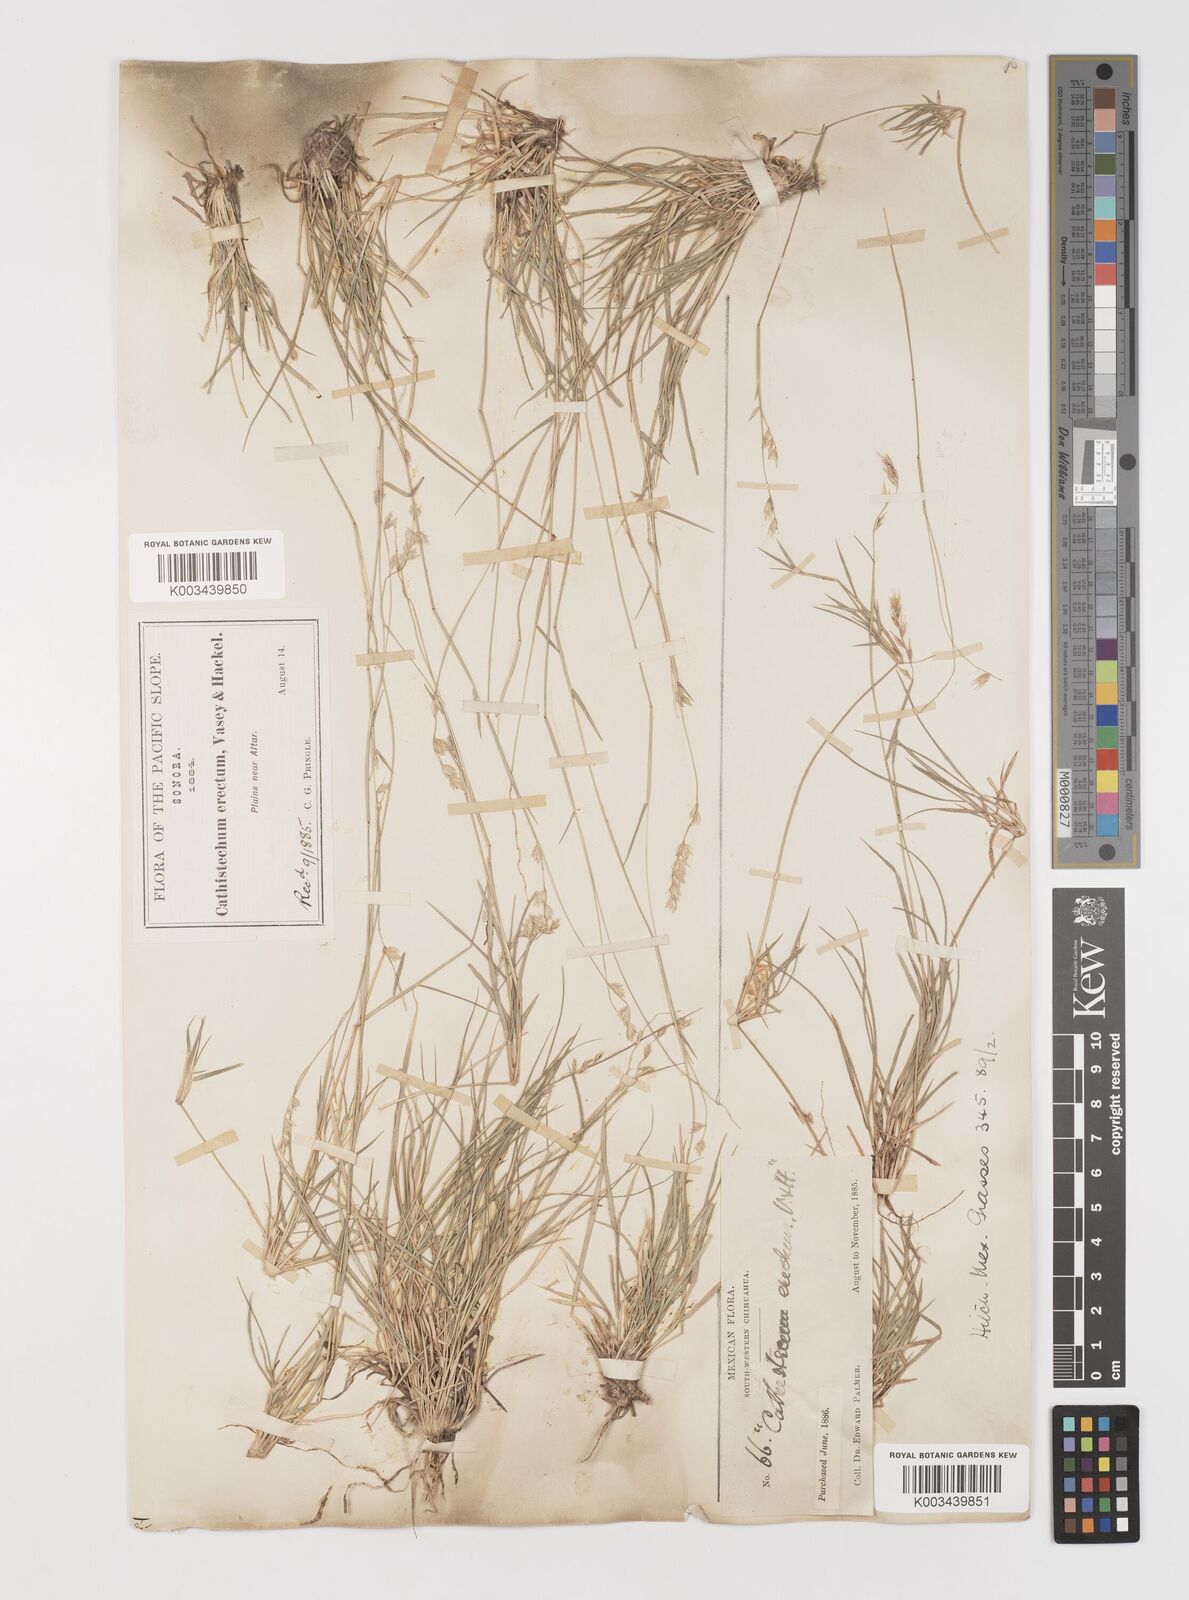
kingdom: Plantae
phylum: Tracheophyta
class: Liliopsida
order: Poales
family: Poaceae
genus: Bouteloua
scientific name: Bouteloua erecta
